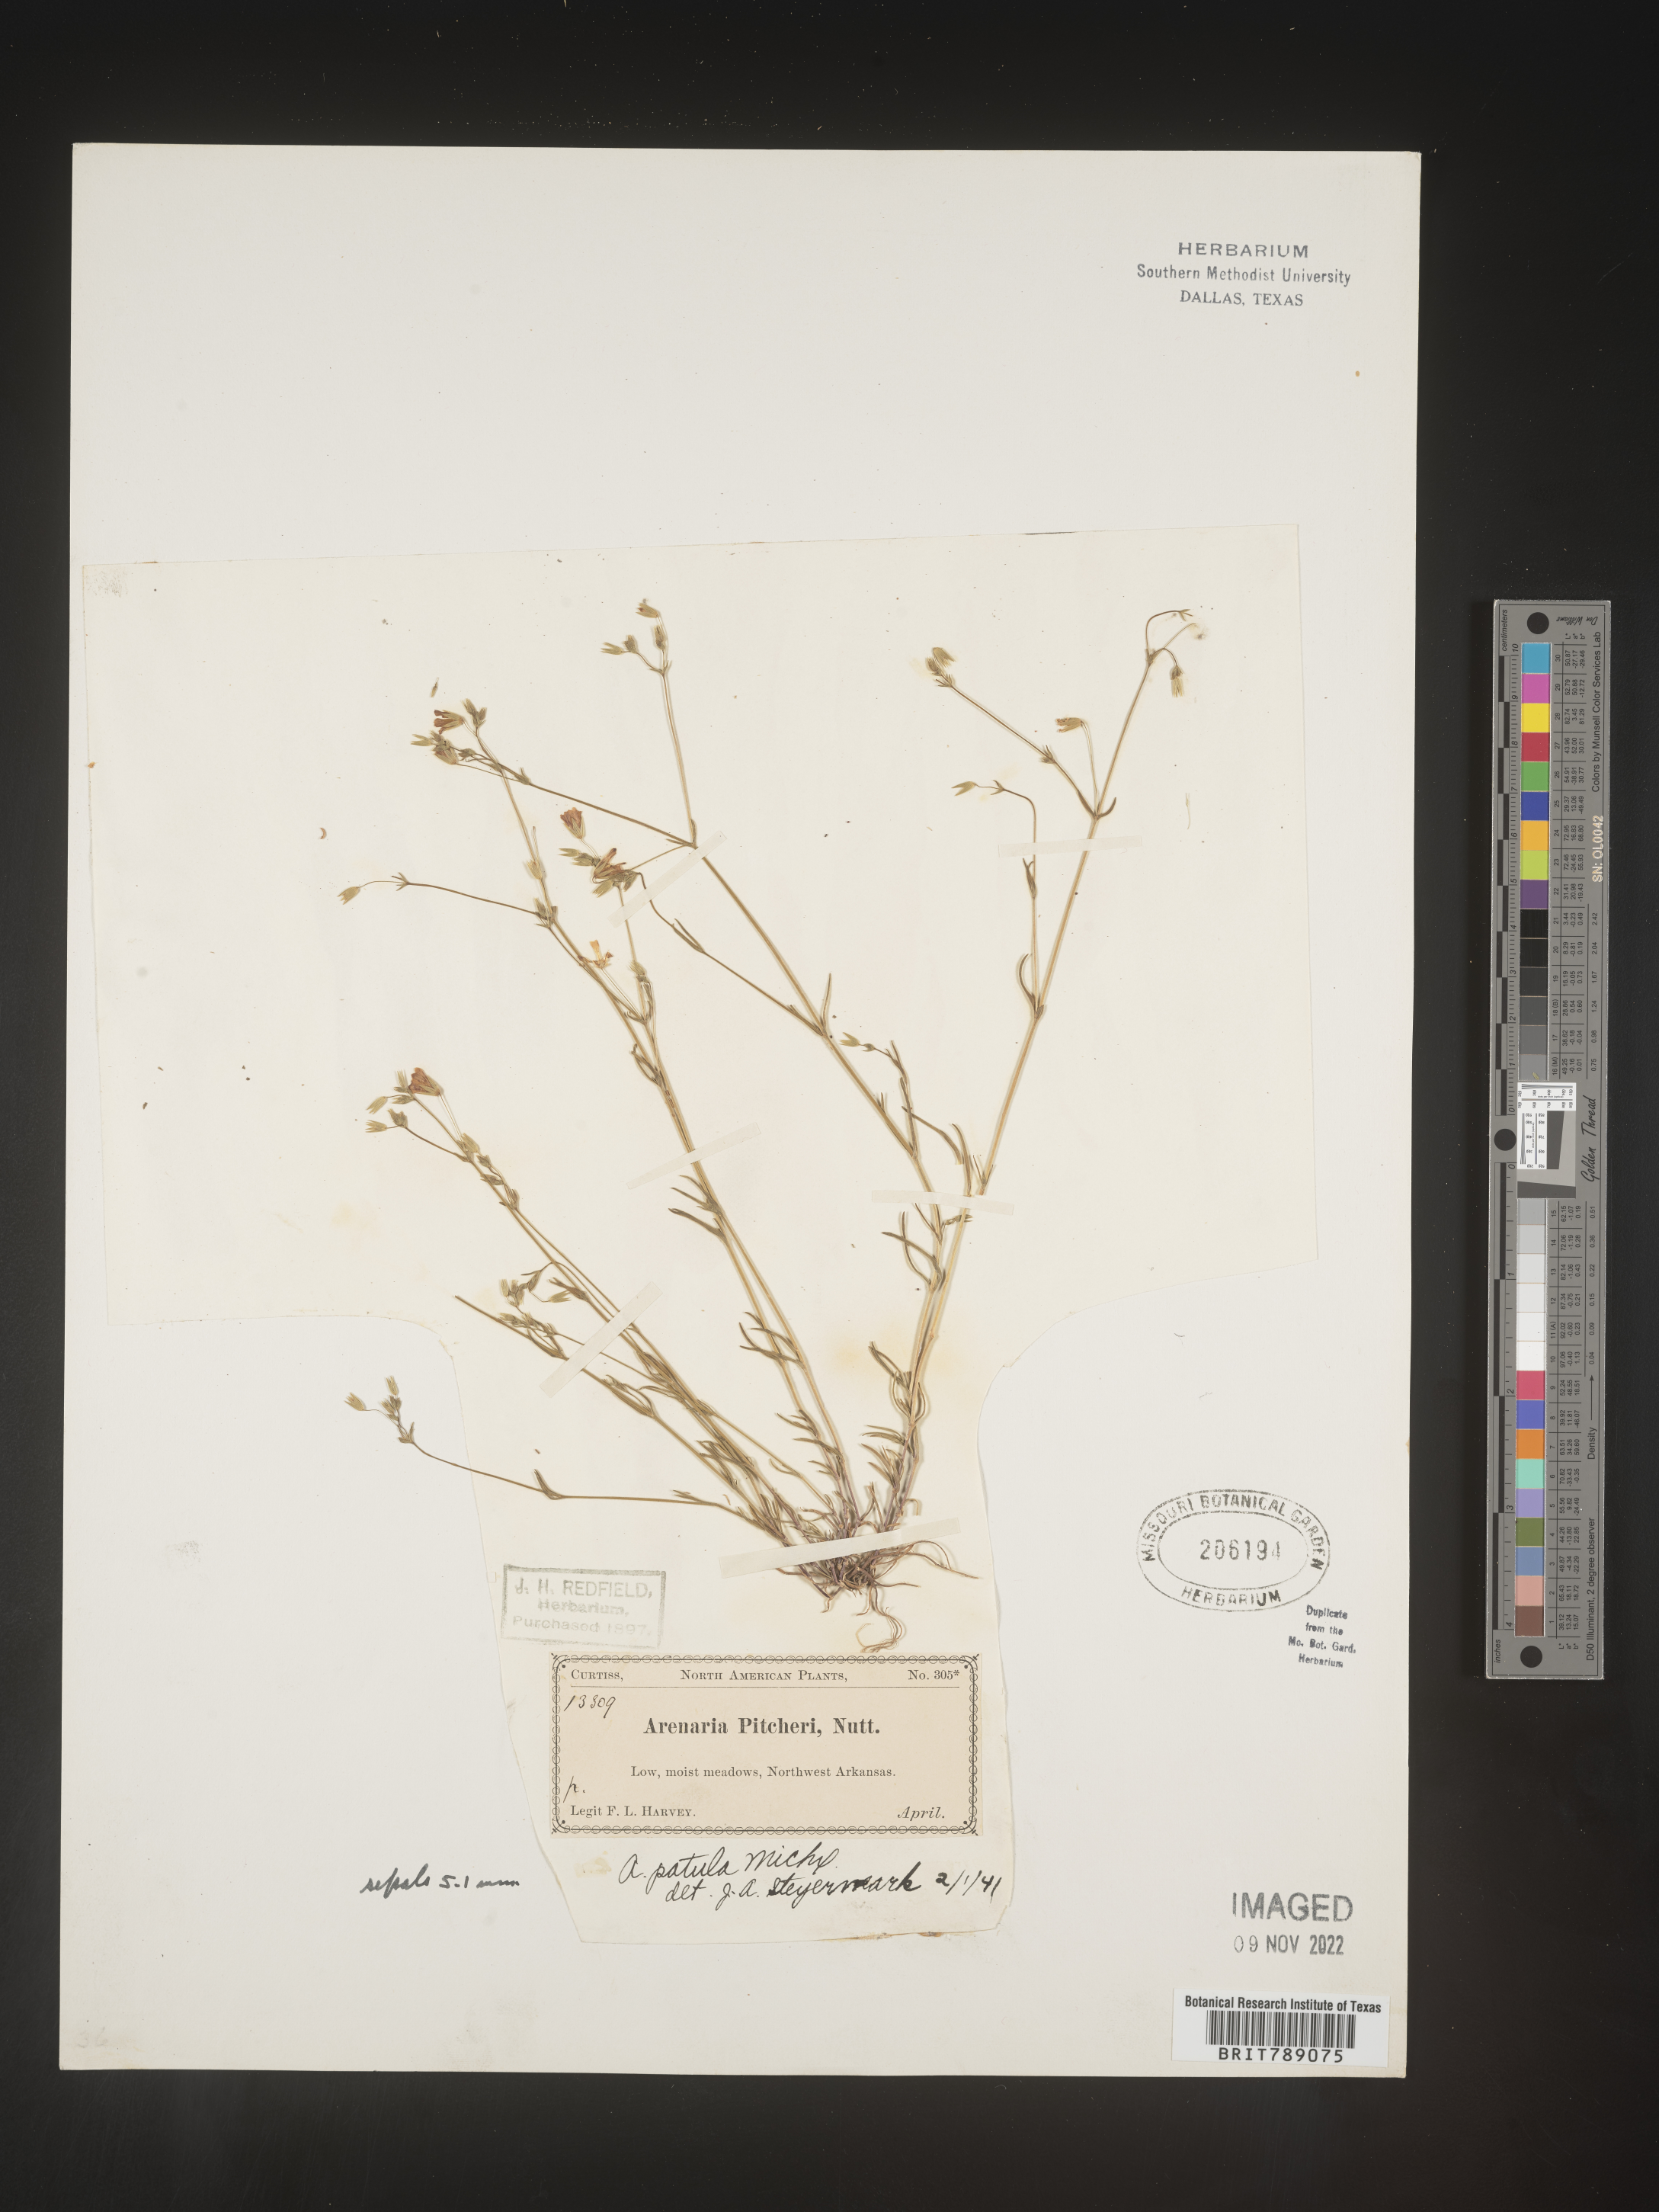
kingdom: Plantae
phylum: Tracheophyta
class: Magnoliopsida
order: Caryophyllales
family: Caryophyllaceae
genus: Mononeuria
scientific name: Mononeuria patula
